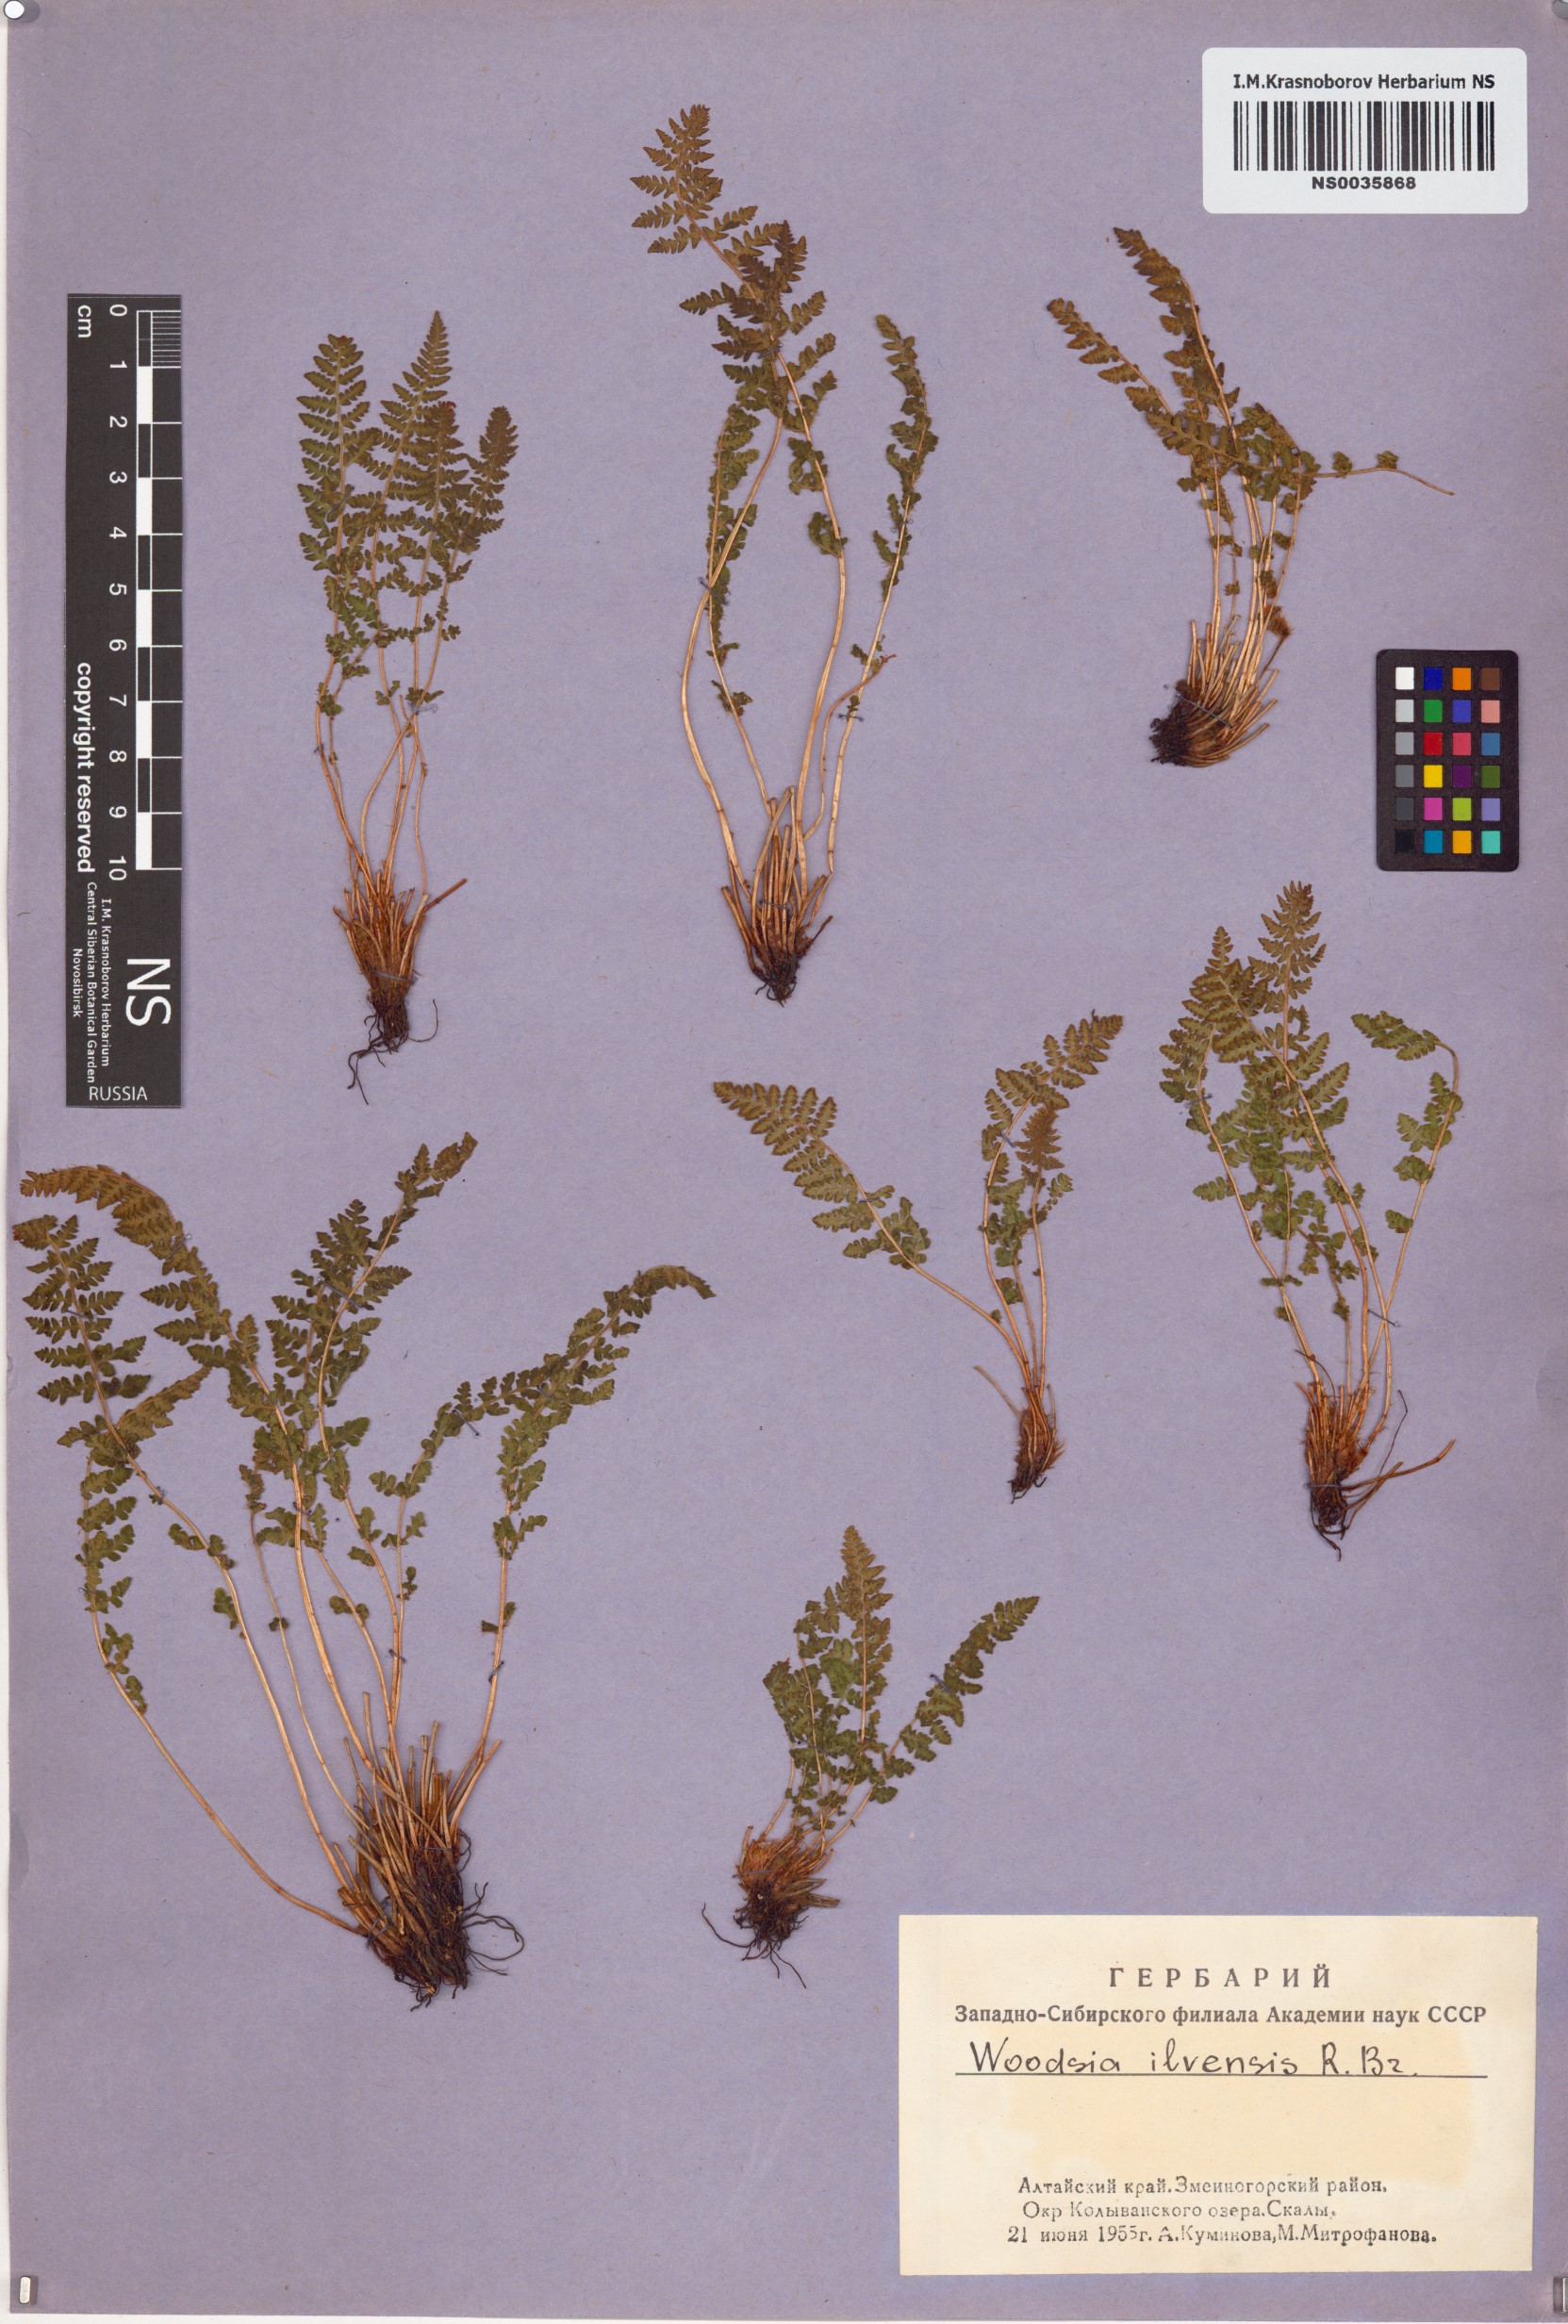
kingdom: Plantae
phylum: Tracheophyta
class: Polypodiopsida
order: Polypodiales
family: Woodsiaceae
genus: Woodsia
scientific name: Woodsia ilvensis
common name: Fragrant woodsia
